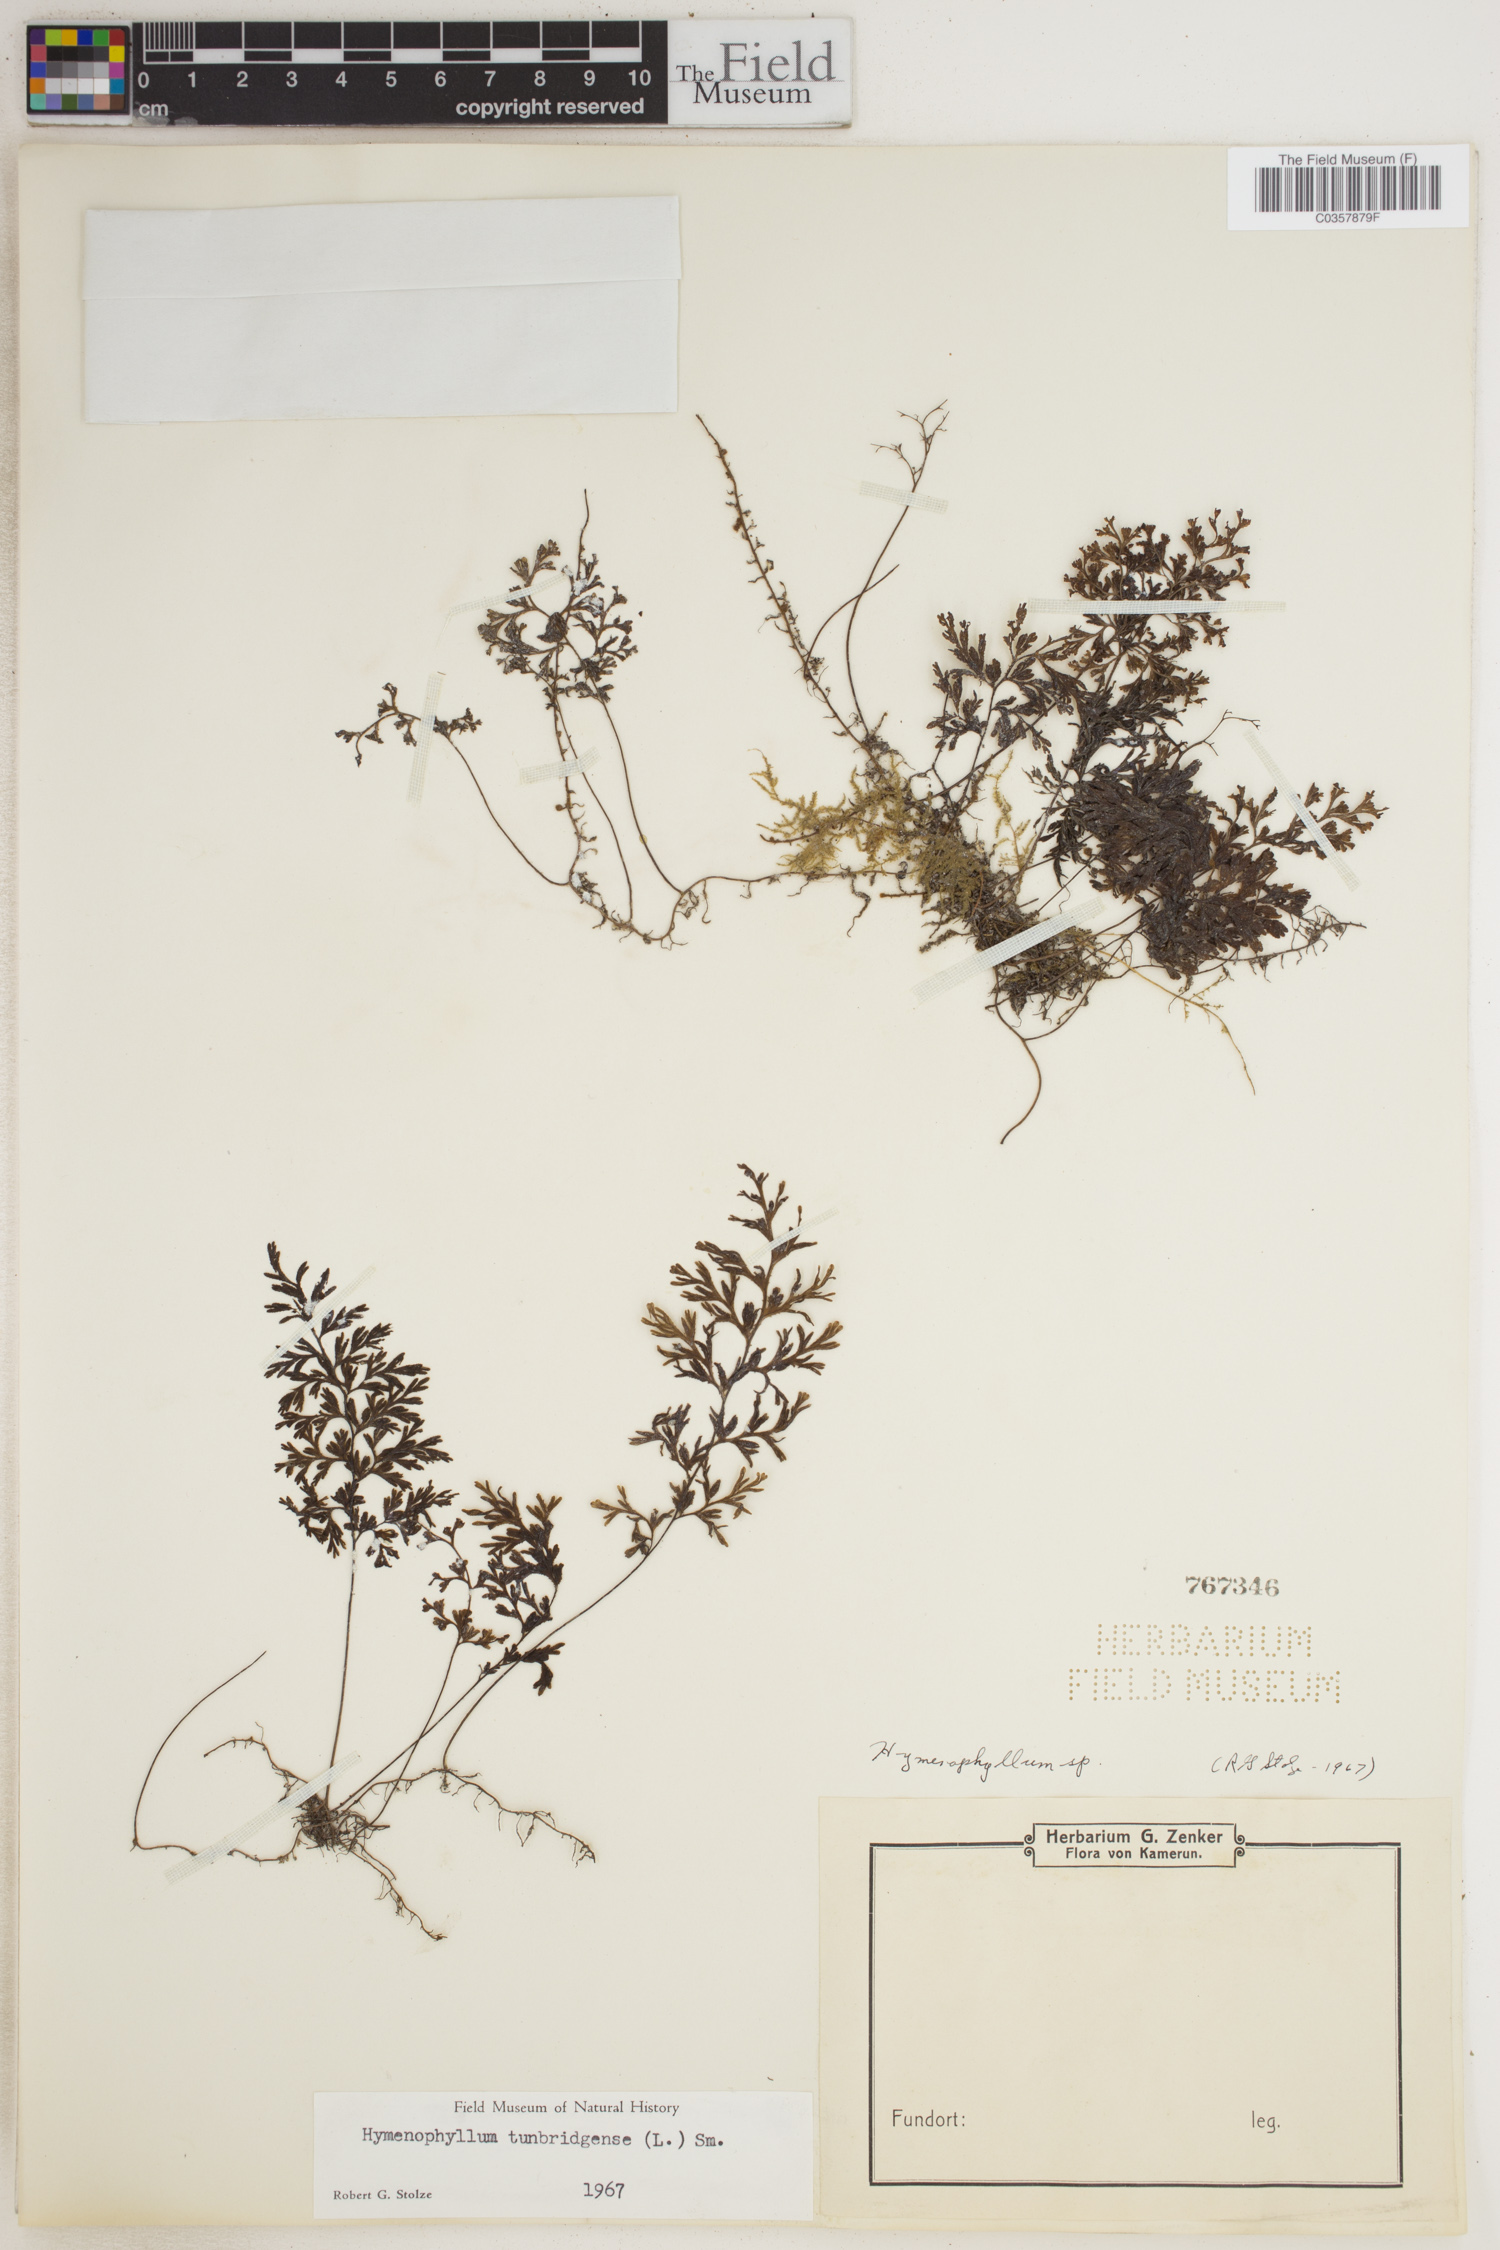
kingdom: Plantae
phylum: Tracheophyta
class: Polypodiopsida
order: Hymenophyllales
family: Hymenophyllaceae
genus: Hymenophyllum
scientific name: Hymenophyllum tunbridgense
